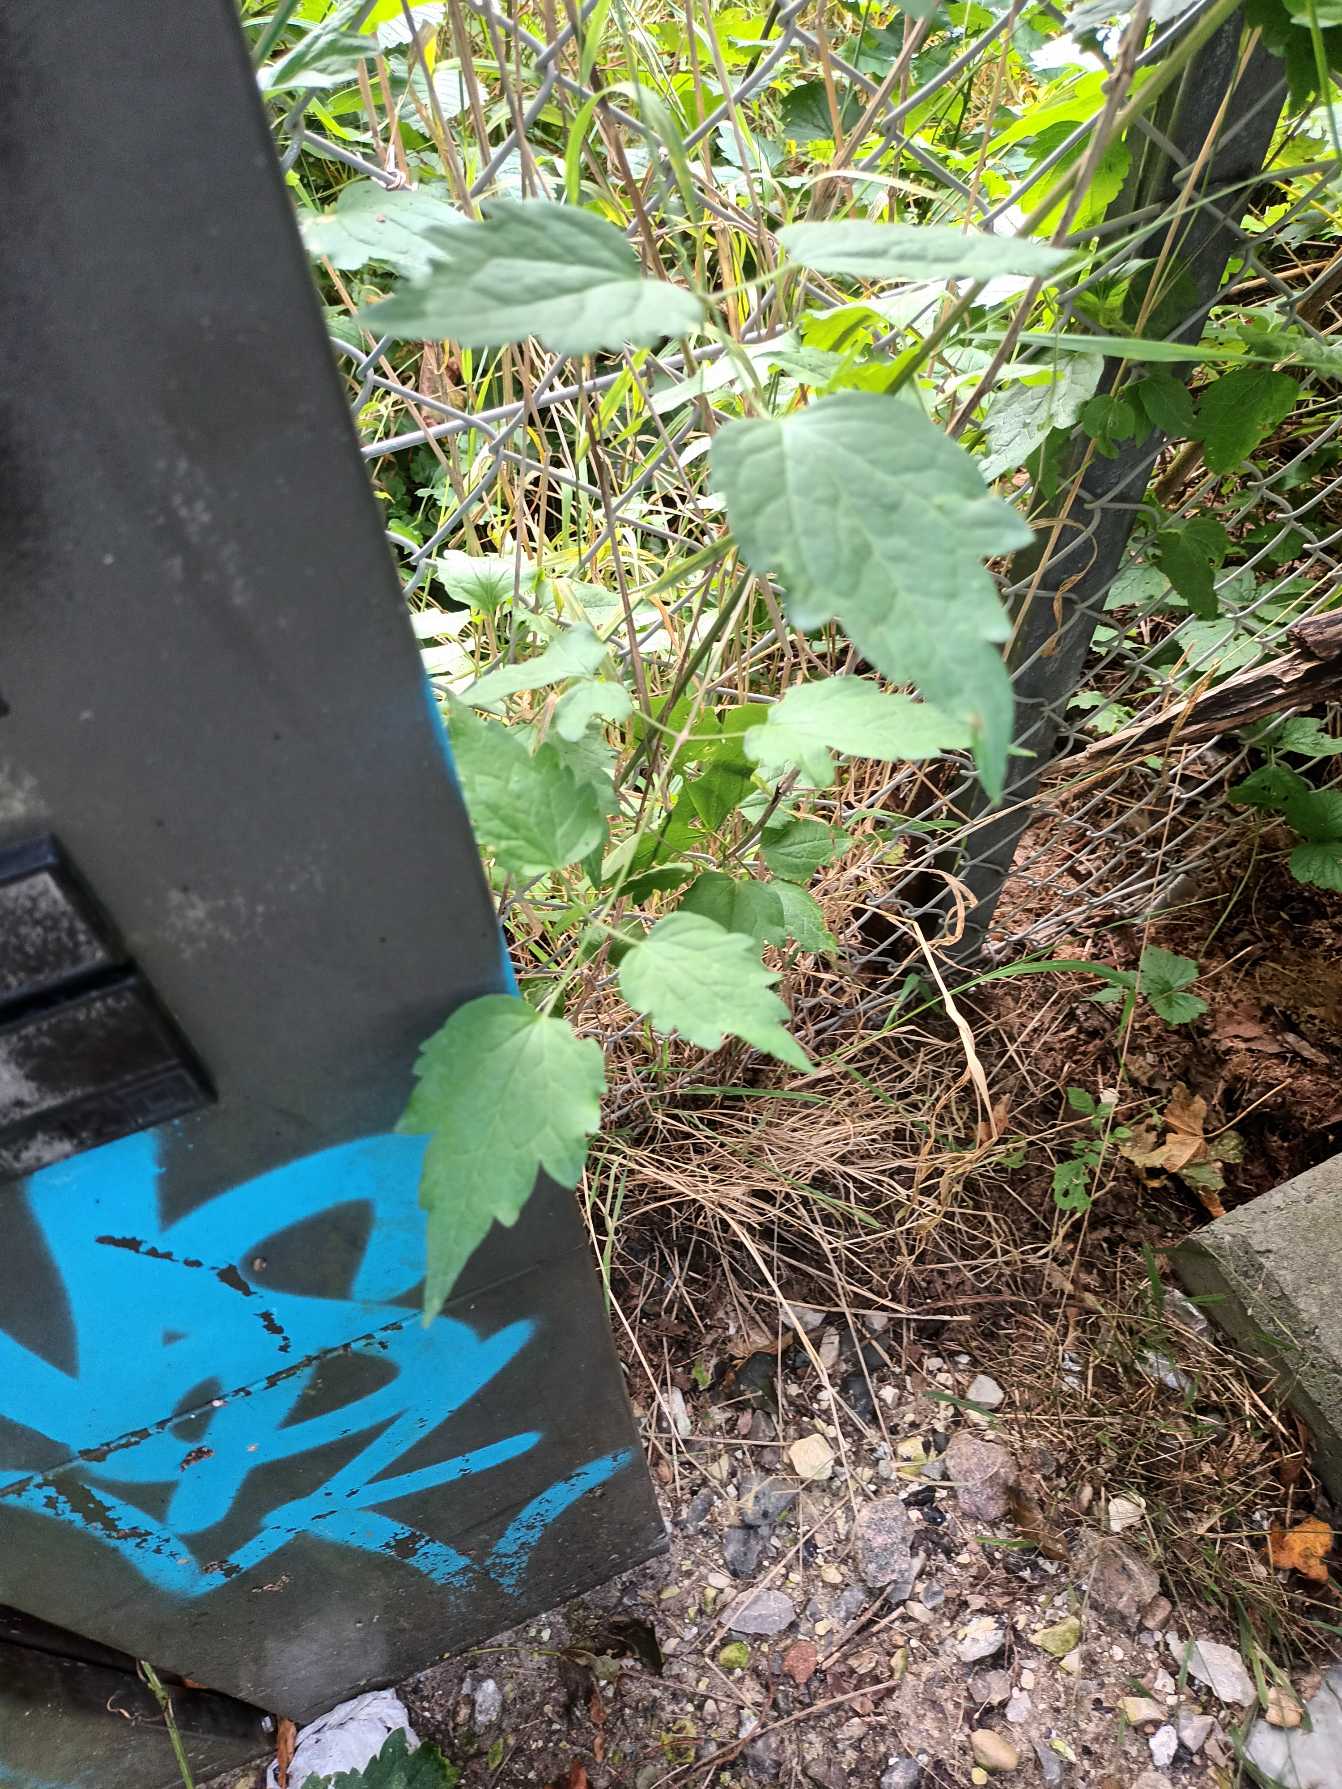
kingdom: Plantae
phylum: Tracheophyta
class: Magnoliopsida
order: Ranunculales
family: Ranunculaceae
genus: Clematis
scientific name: Clematis vitalba
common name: Skovranke
